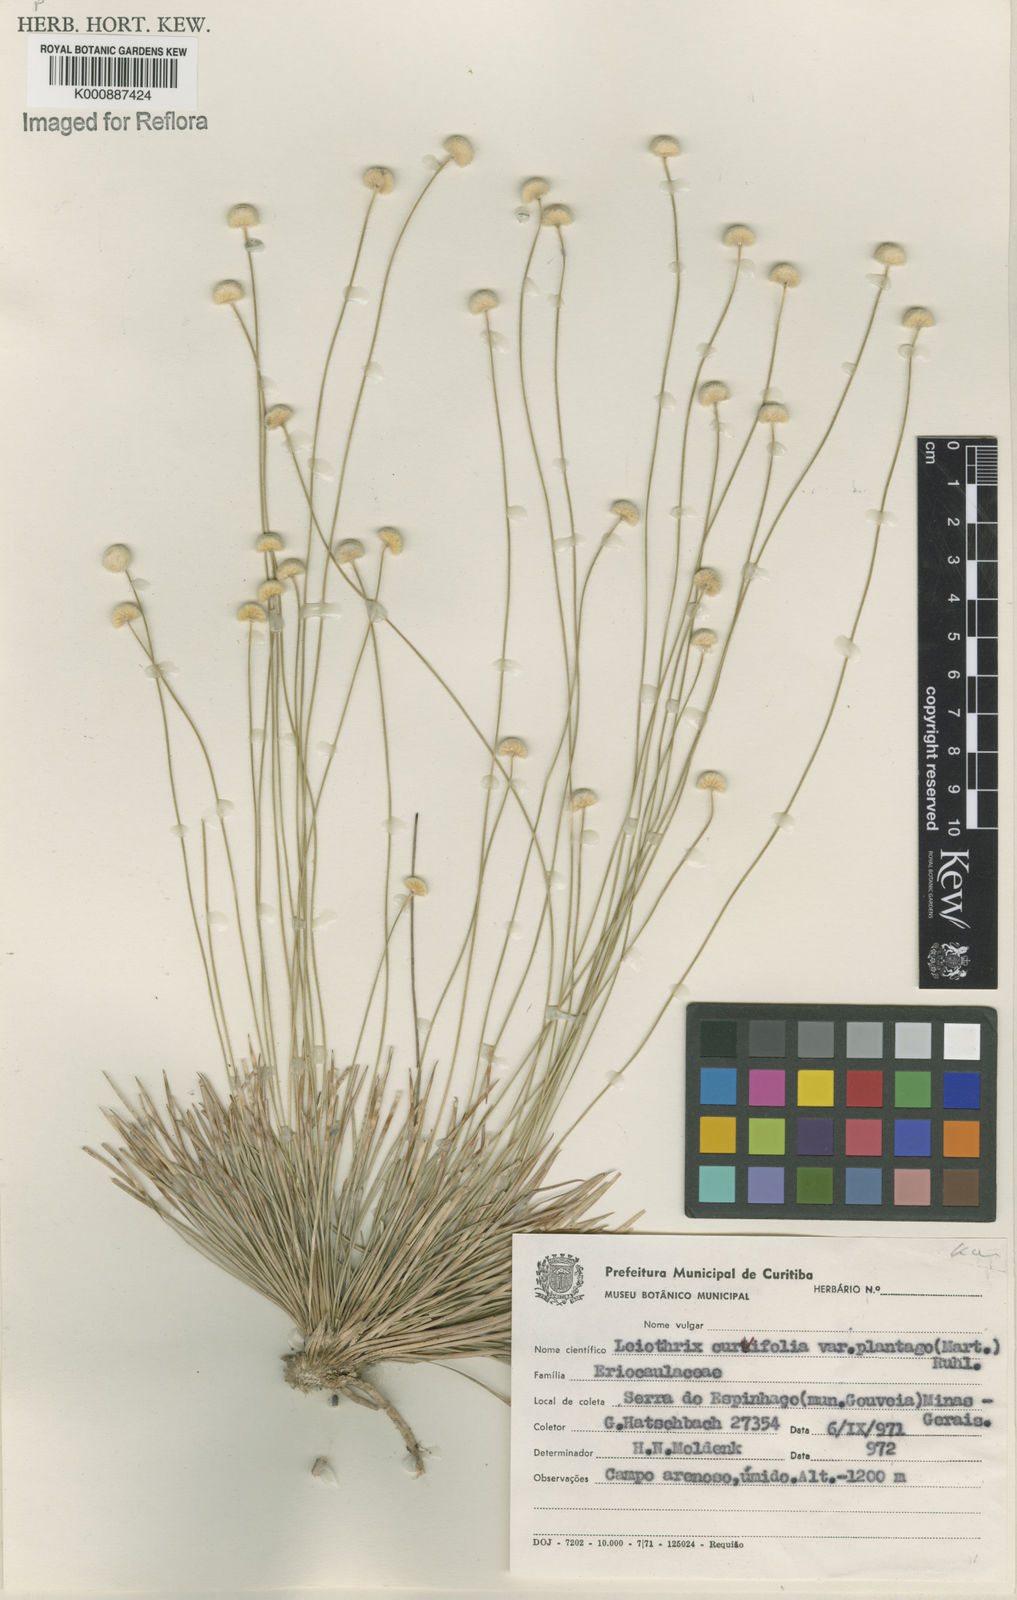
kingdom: Plantae
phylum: Tracheophyta
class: Liliopsida
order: Poales
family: Eriocaulaceae
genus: Leiothrix
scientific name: Leiothrix plantago
